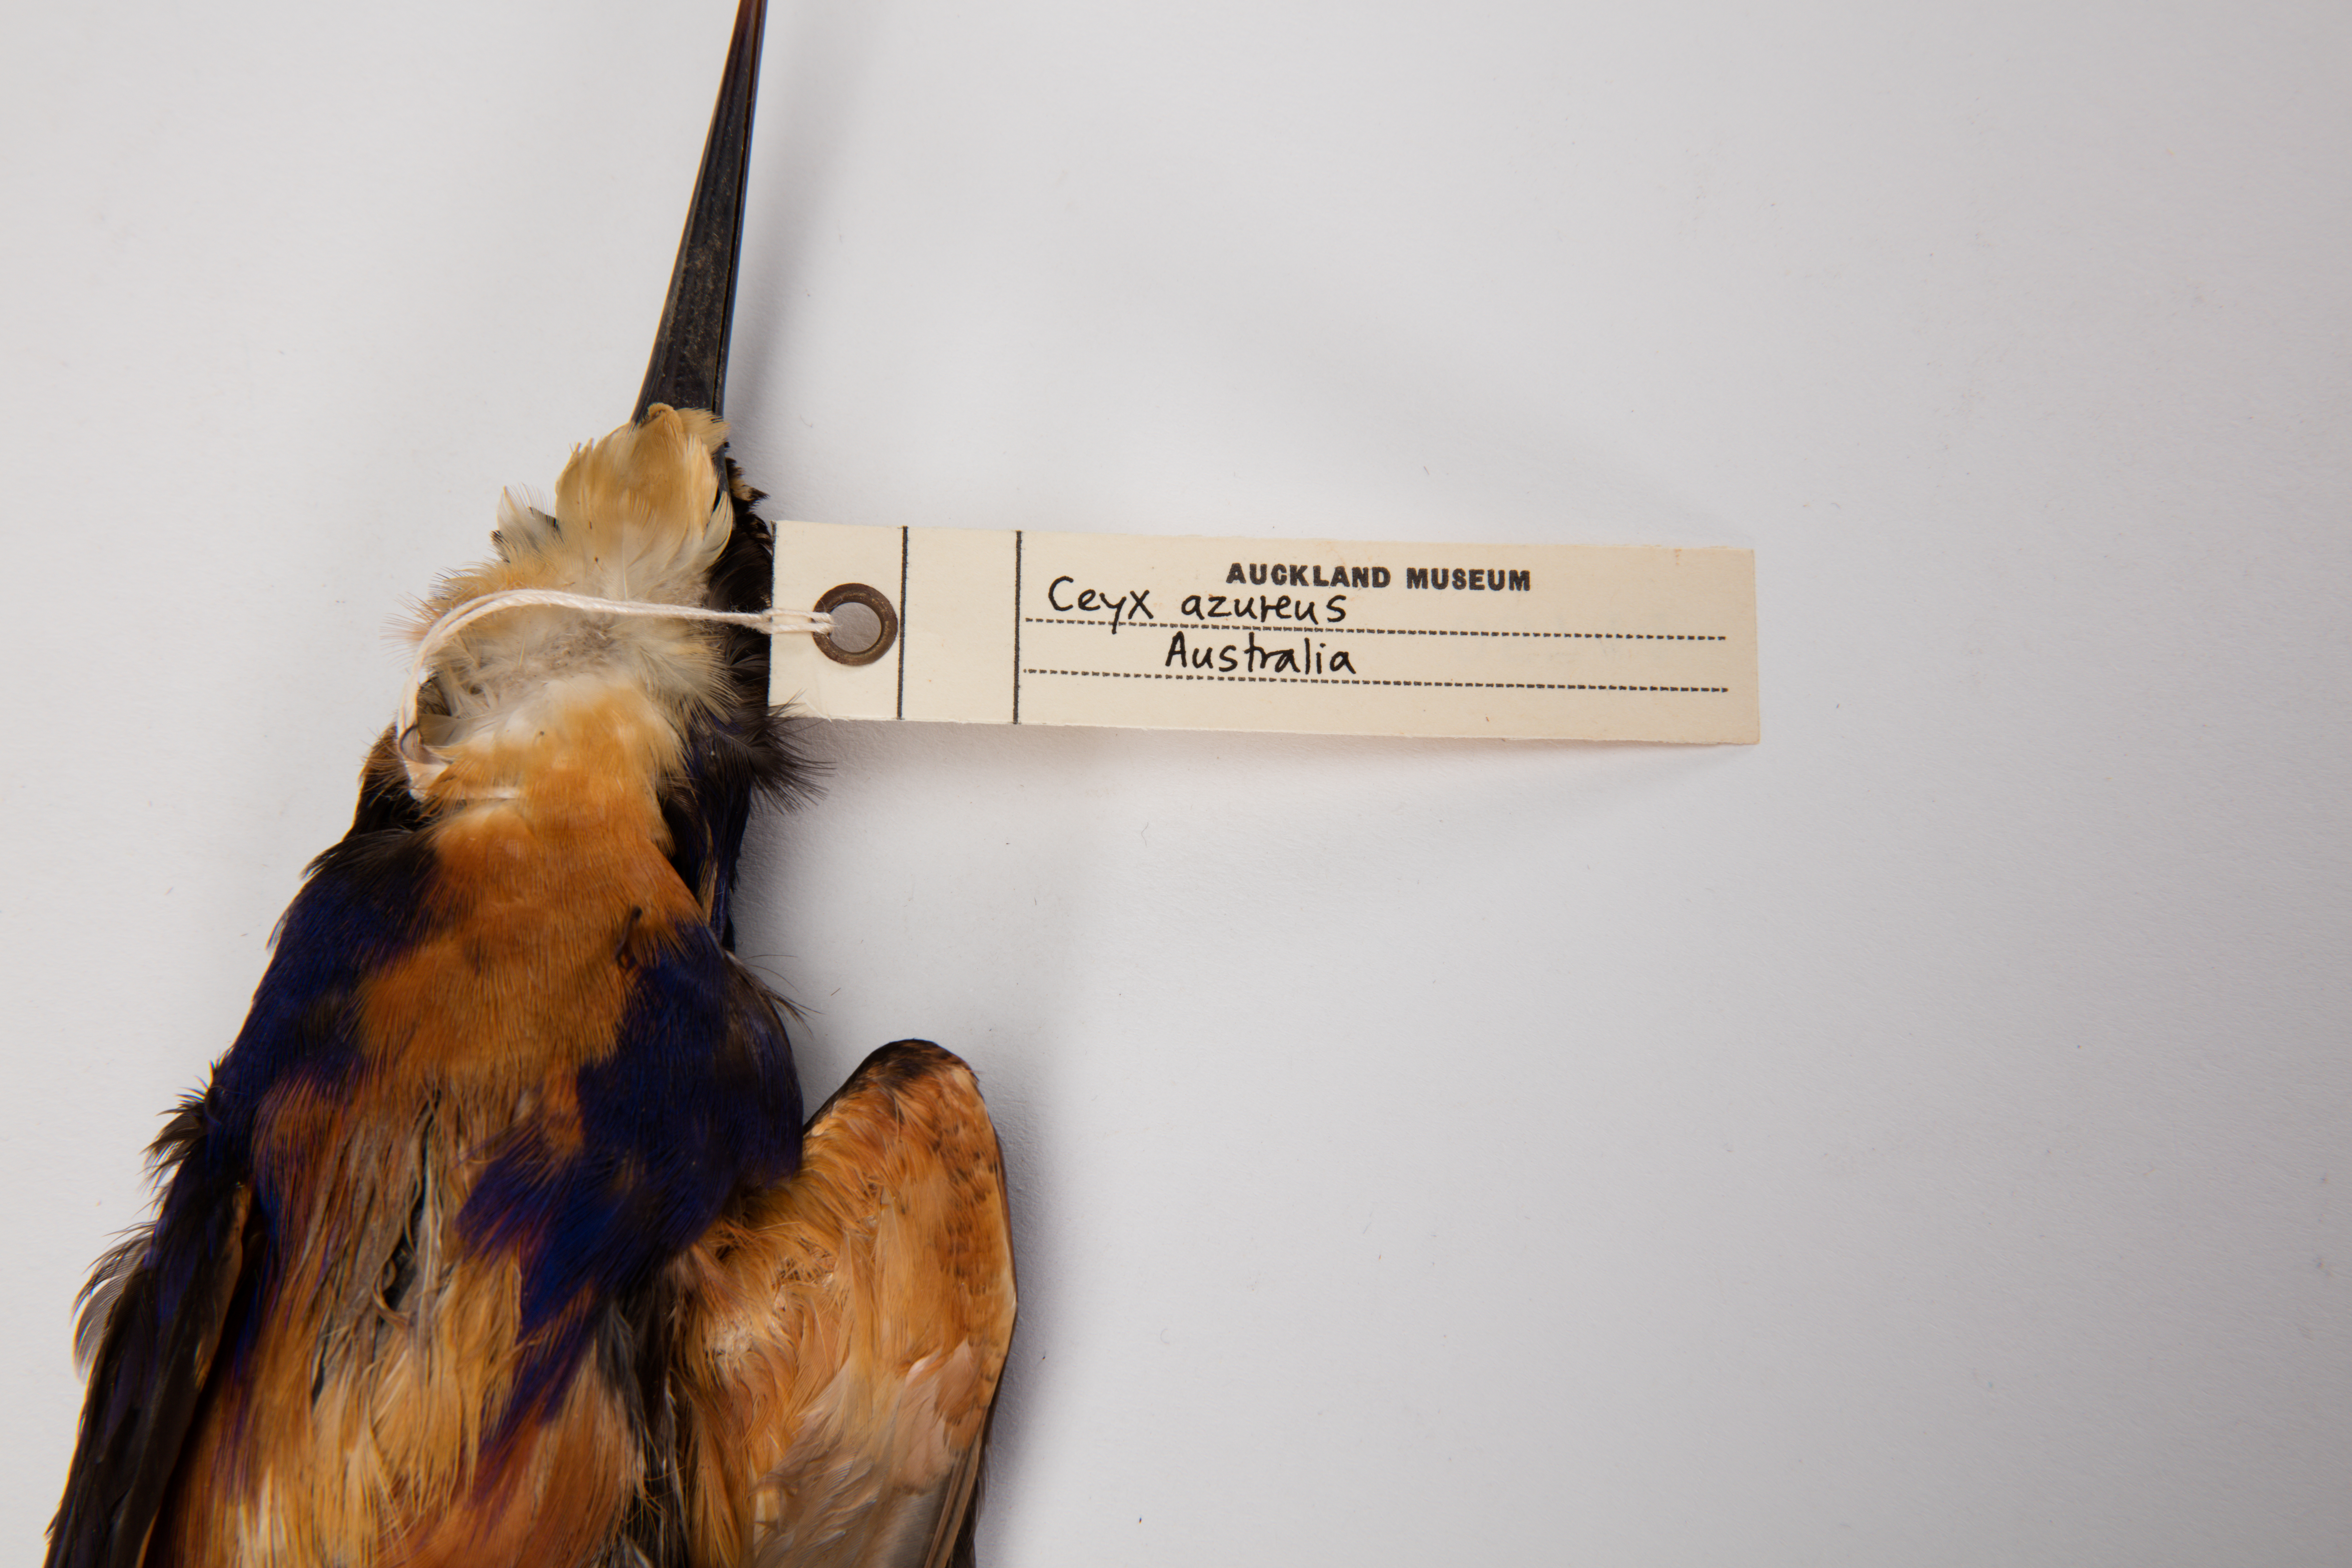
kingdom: Animalia
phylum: Chordata
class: Aves
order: Coraciiformes
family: Alcedinidae
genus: Ceyx
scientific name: Ceyx azureus
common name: Azure kingfisher
